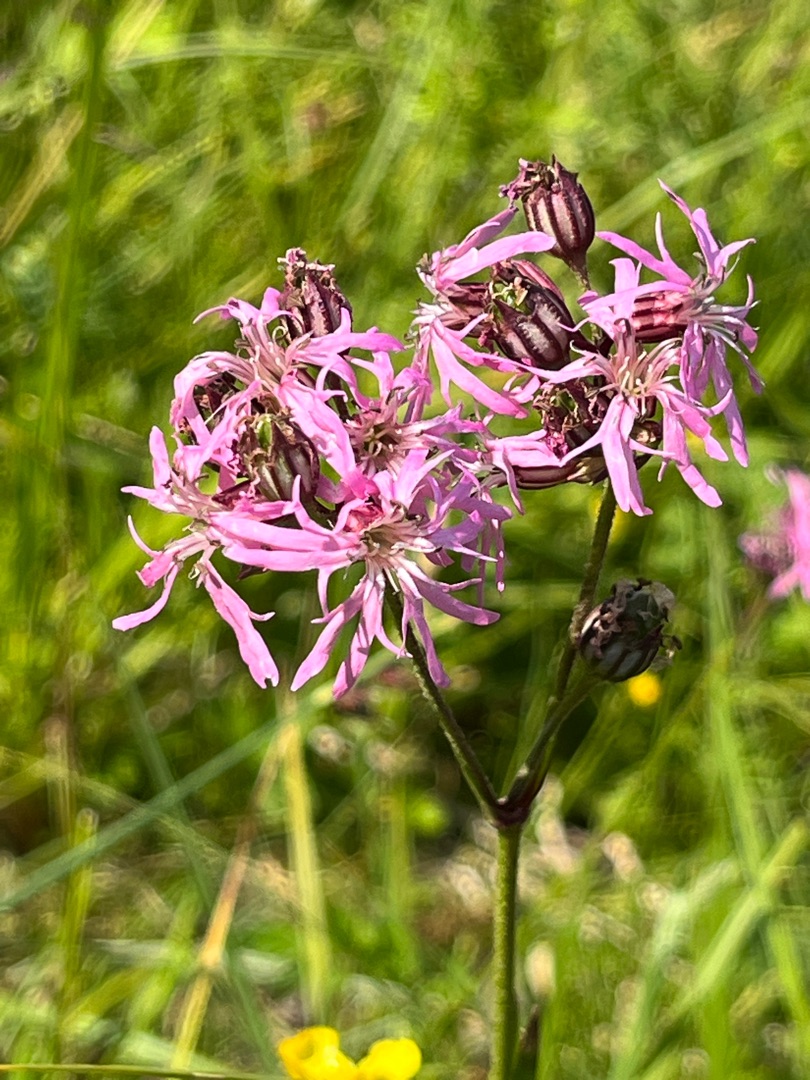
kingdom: Plantae
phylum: Tracheophyta
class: Magnoliopsida
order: Caryophyllales
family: Caryophyllaceae
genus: Silene
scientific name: Silene flos-cuculi
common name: Trævlekrone
